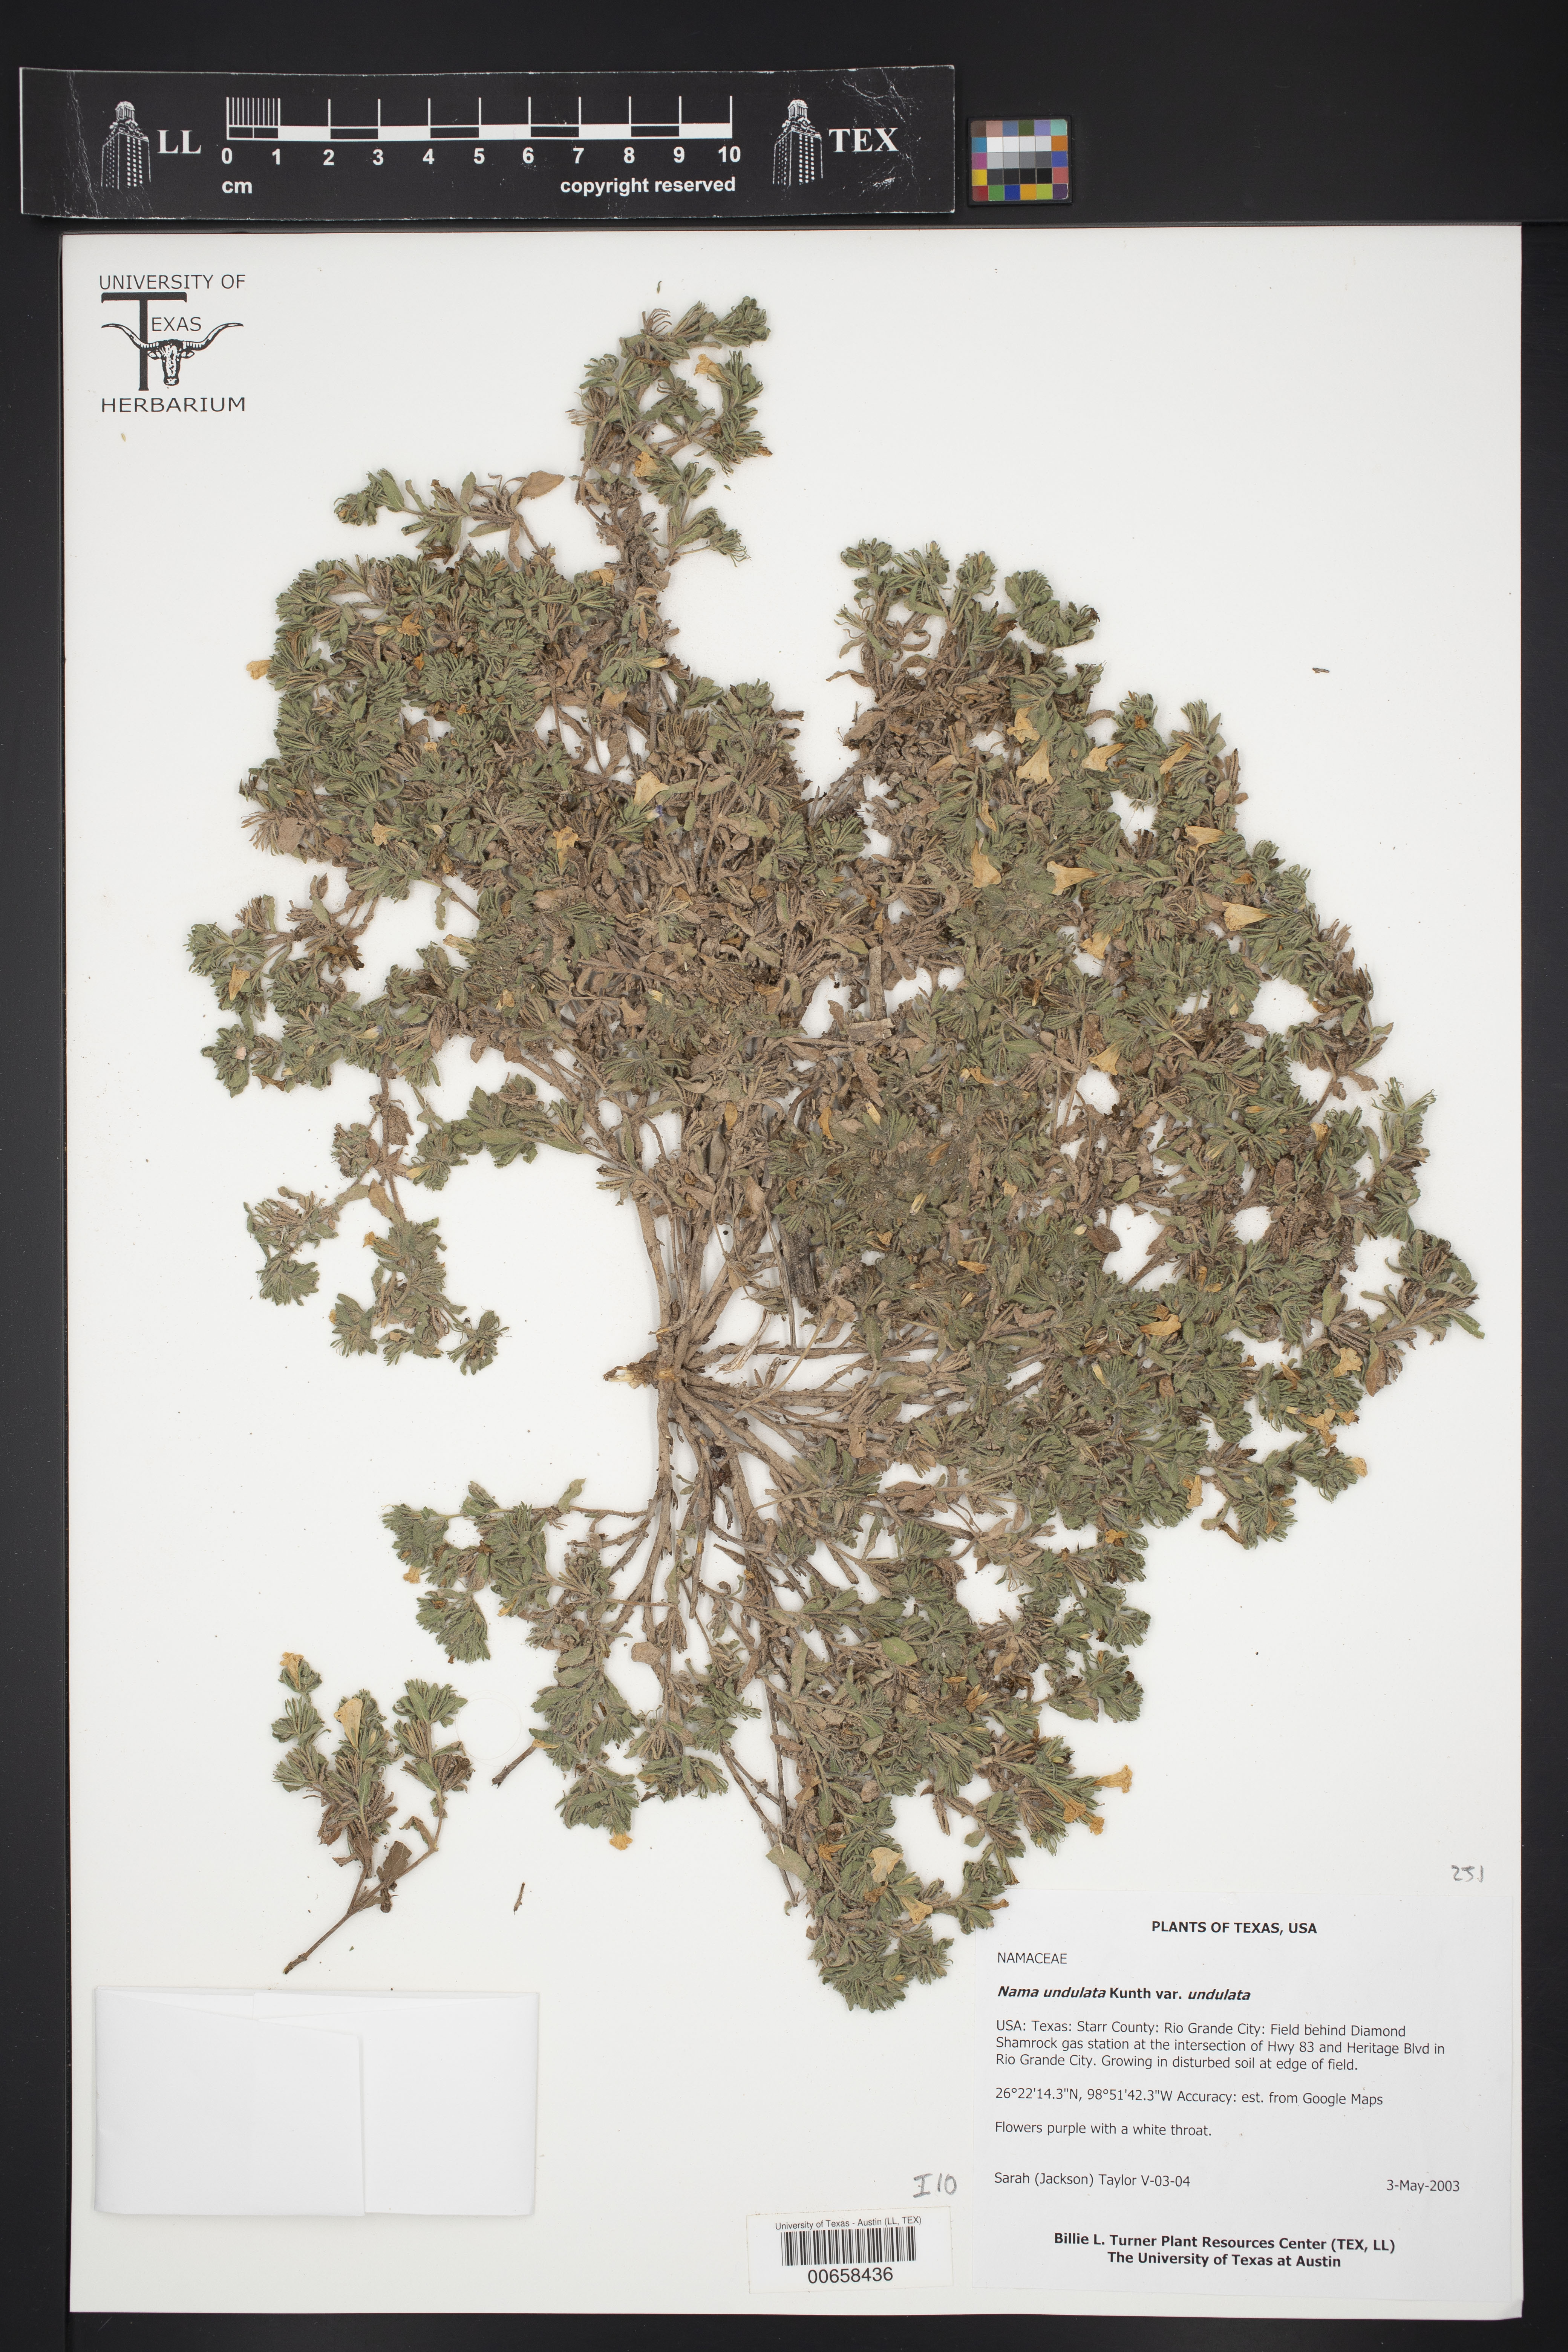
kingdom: Plantae
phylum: Tracheophyta
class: Magnoliopsida
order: Boraginales
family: Namaceae
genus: Nama
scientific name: Nama undulata
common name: Whitewhisker fiddleleaf
